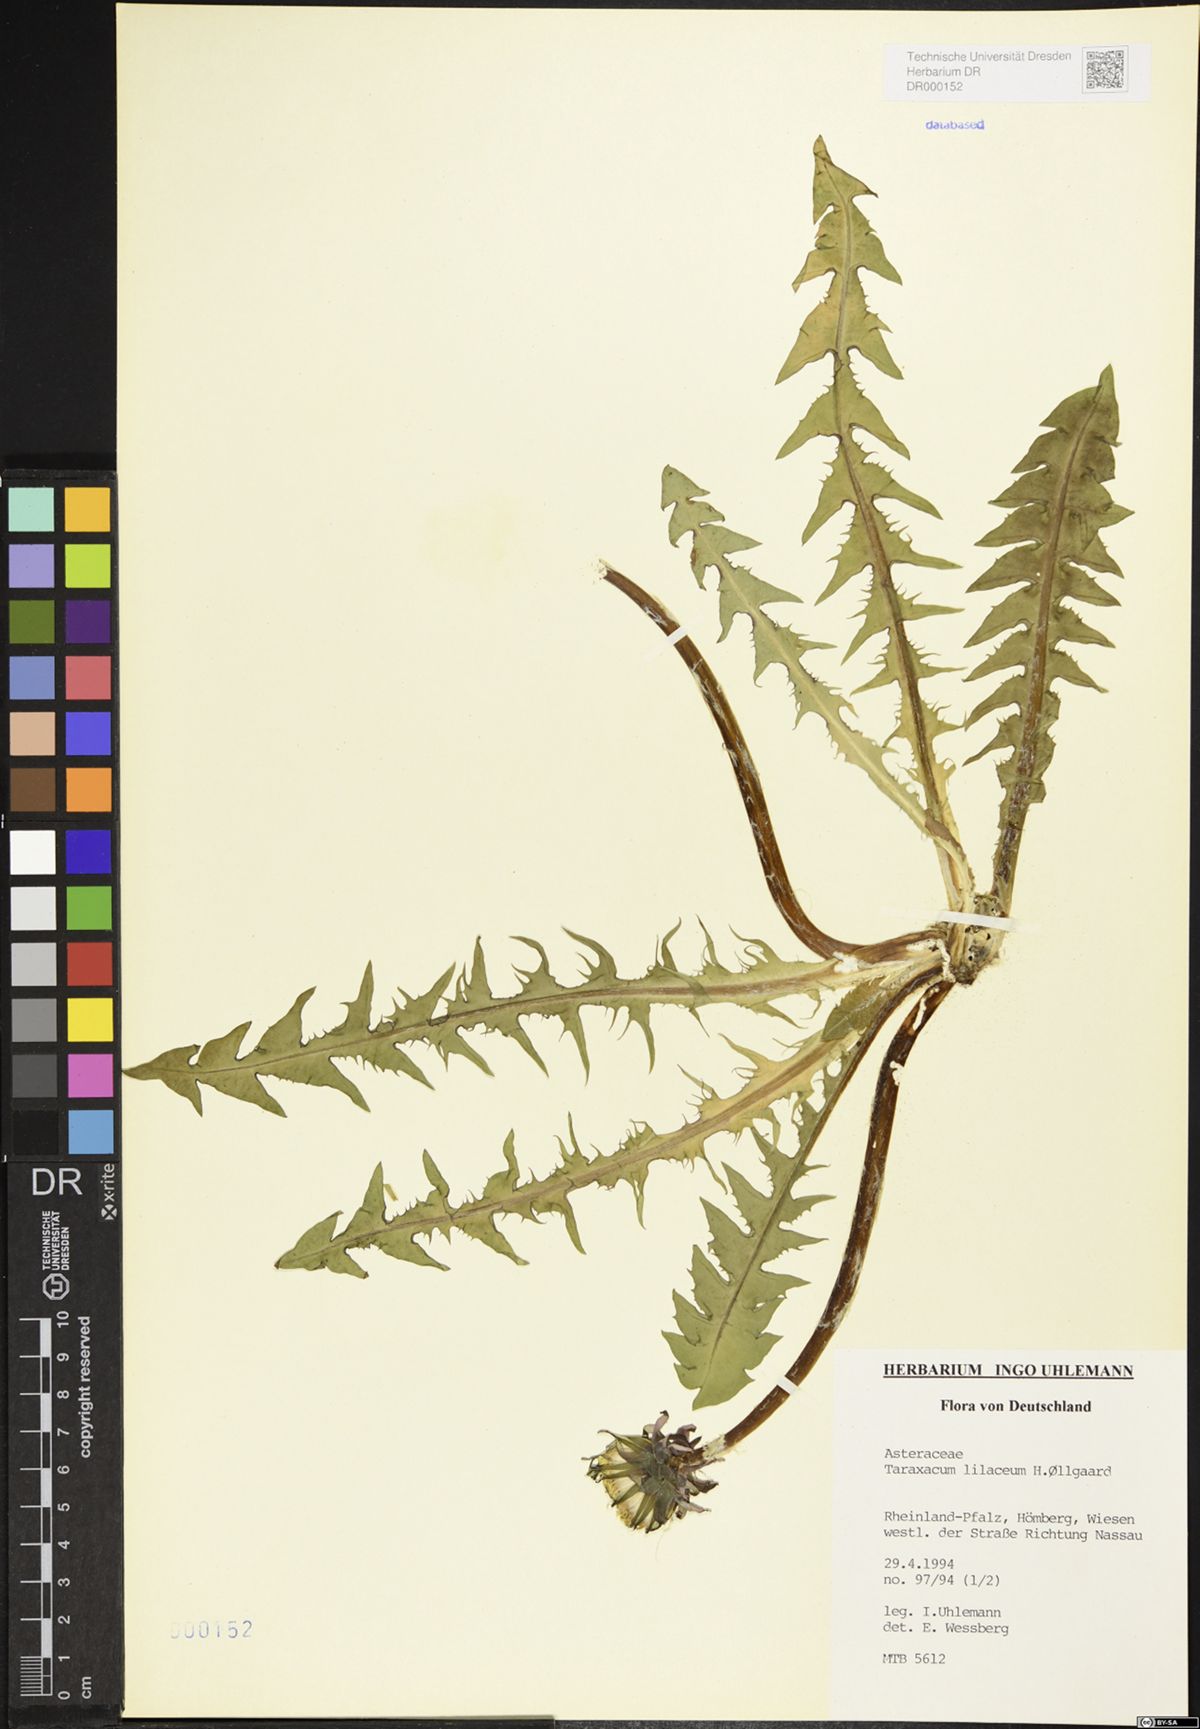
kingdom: Plantae
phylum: Tracheophyta
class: Magnoliopsida
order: Asterales
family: Asteraceae
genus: Taraxacum
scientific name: Taraxacum floccosum
